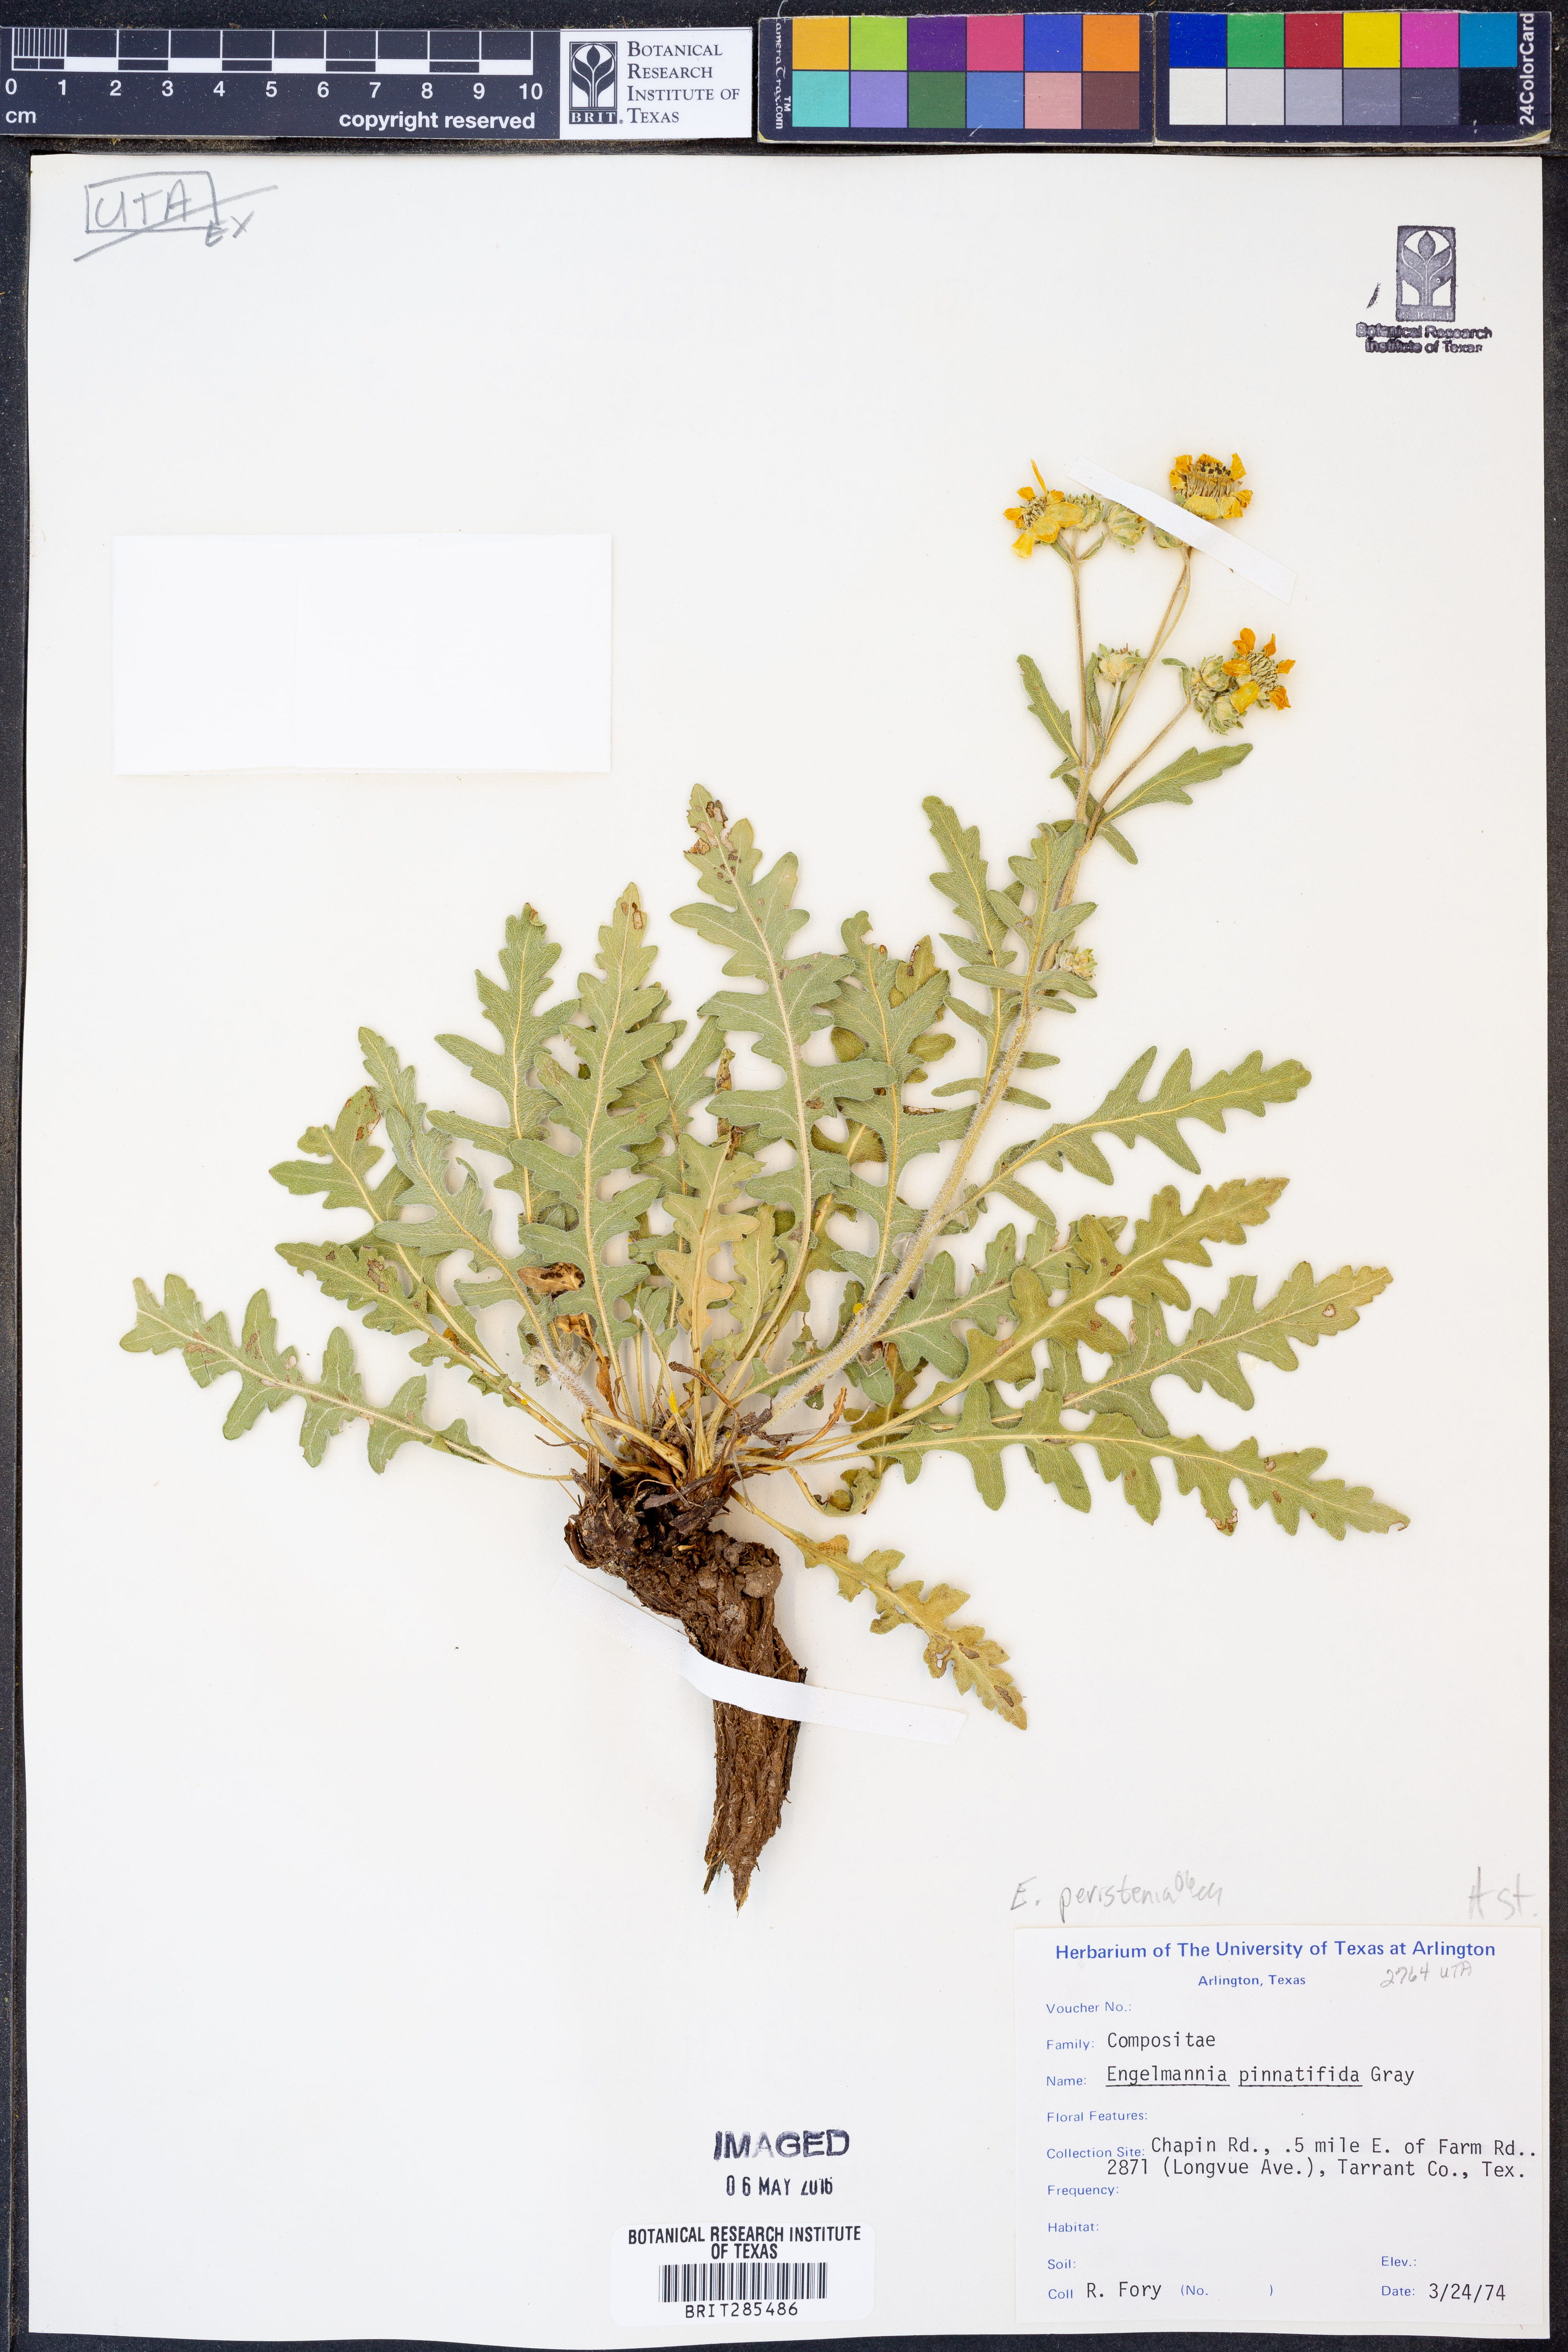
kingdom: Plantae
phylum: Tracheophyta
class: Magnoliopsida
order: Asterales
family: Asteraceae
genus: Engelmannia
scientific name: Engelmannia peristenia
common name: Engelmann's daisy
